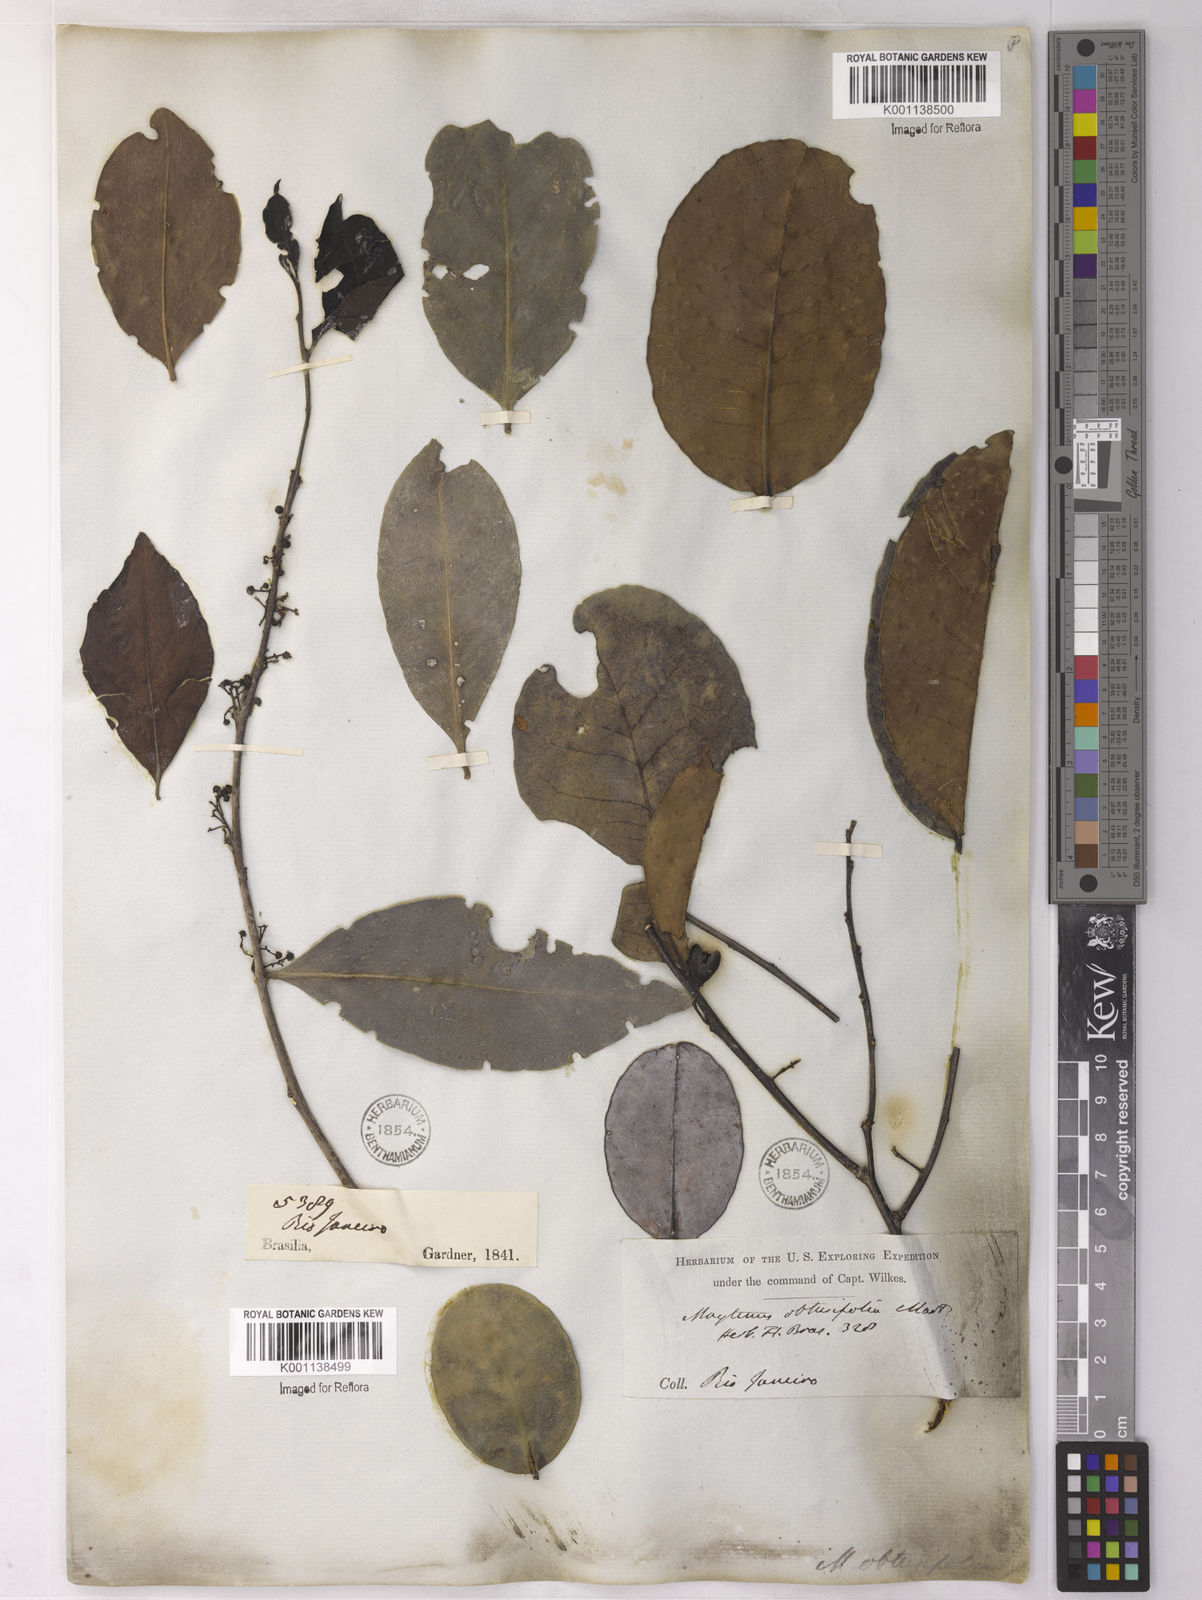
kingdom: Plantae
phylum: Tracheophyta
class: Magnoliopsida
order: Celastrales
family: Celastraceae
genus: Monteverdia
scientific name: Monteverdia obtusifolia
